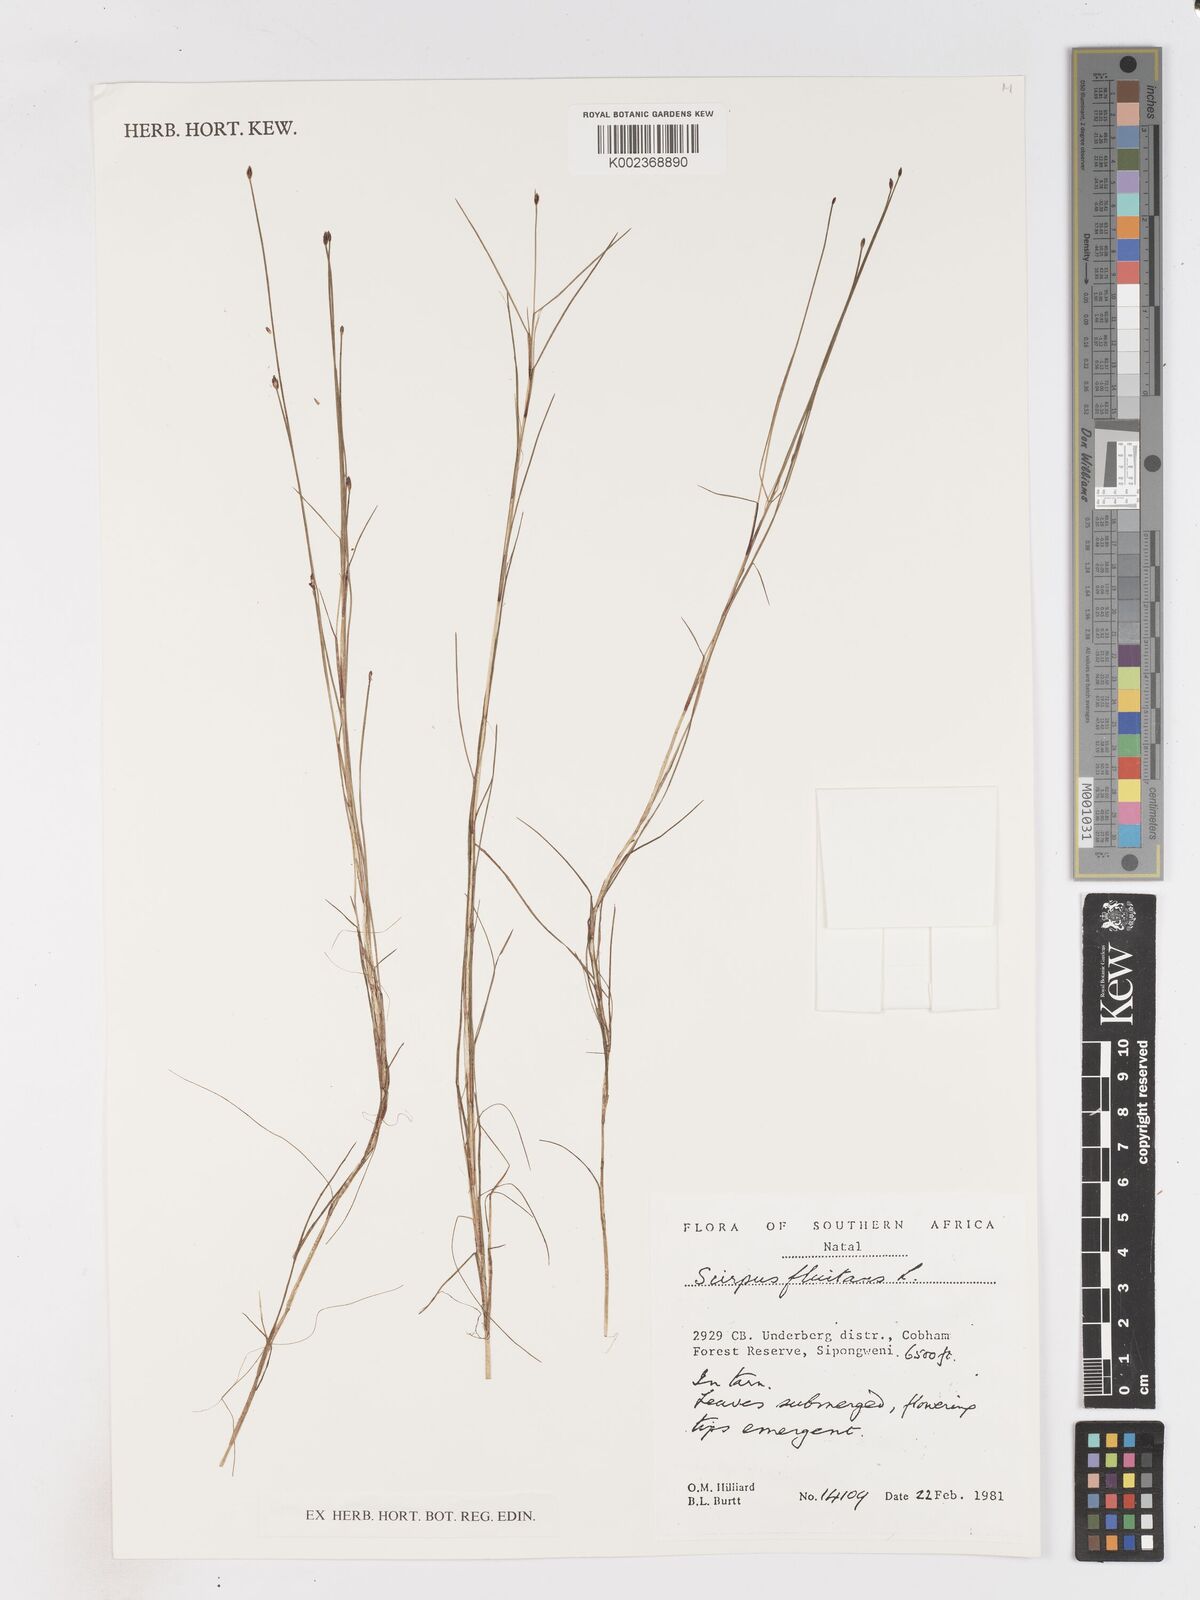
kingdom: Plantae
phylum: Tracheophyta
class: Liliopsida
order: Poales
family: Cyperaceae
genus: Isolepis
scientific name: Isolepis fluitans
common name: Floating club-rush
